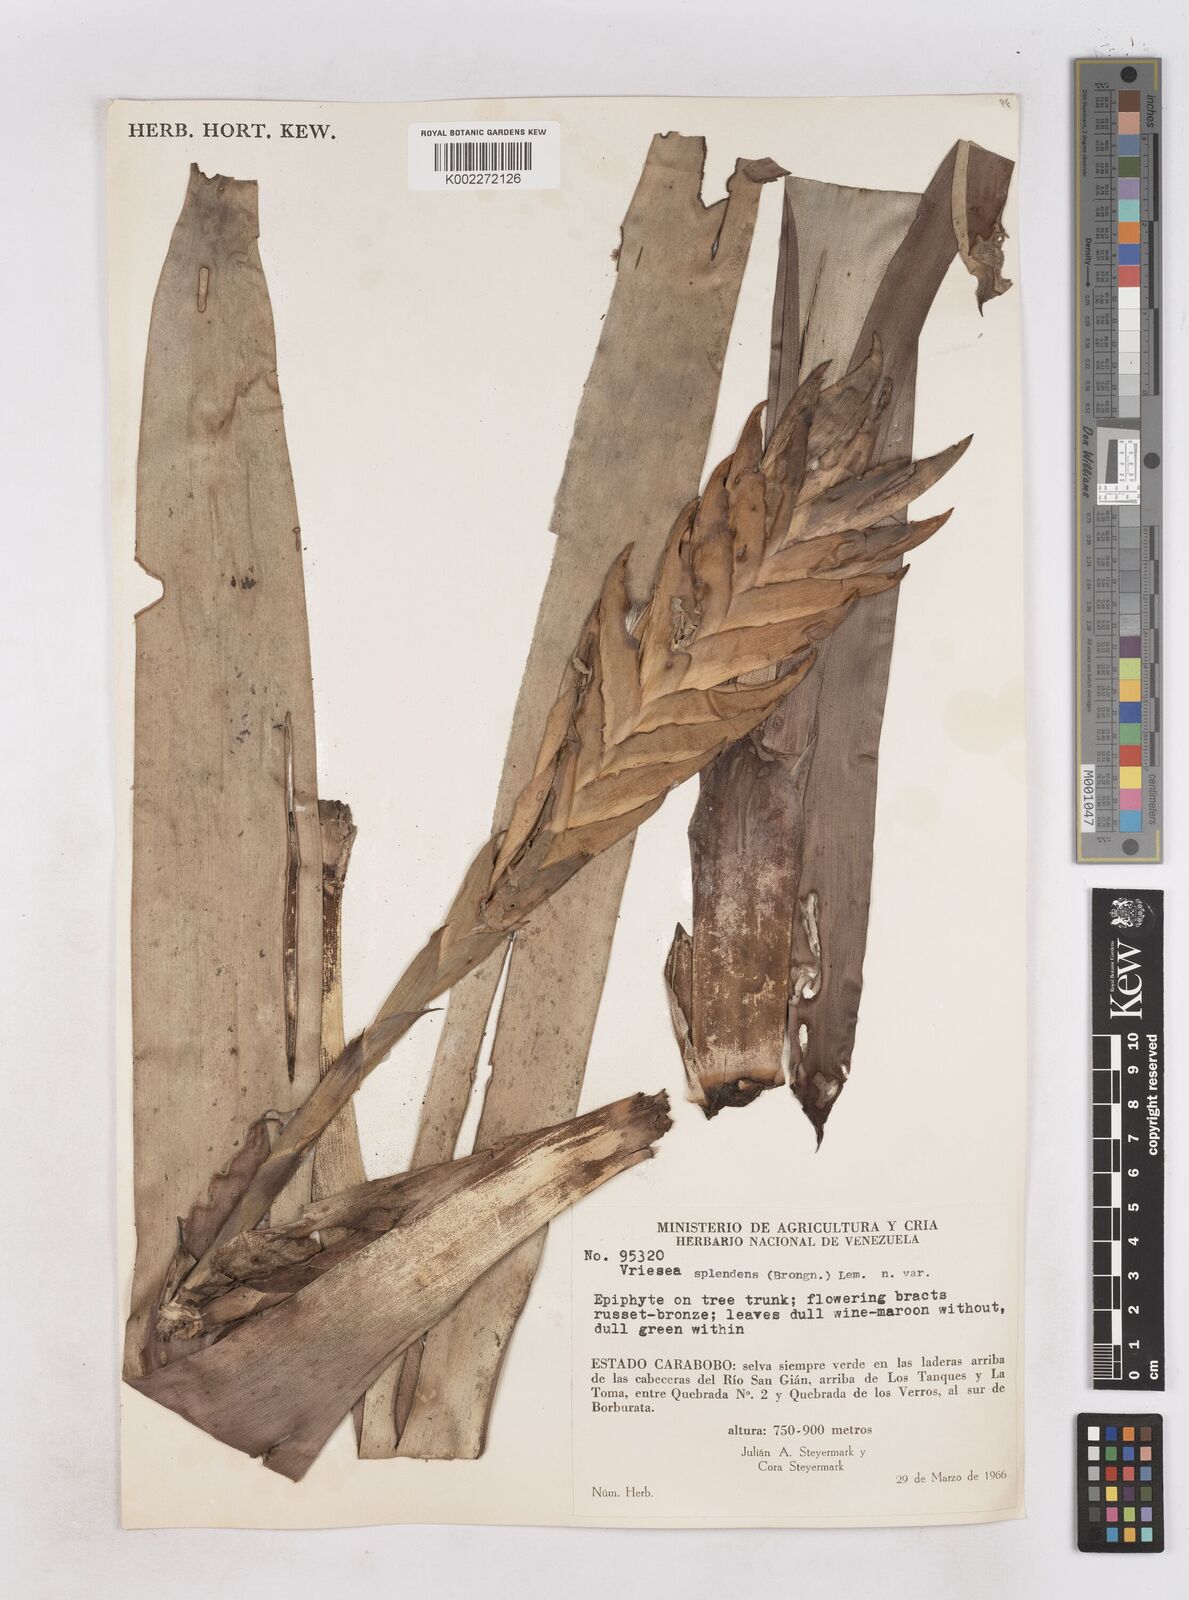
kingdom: Plantae
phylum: Tracheophyta
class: Liliopsida
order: Poales
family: Bromeliaceae
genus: Lutheria
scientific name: Lutheria splendens
